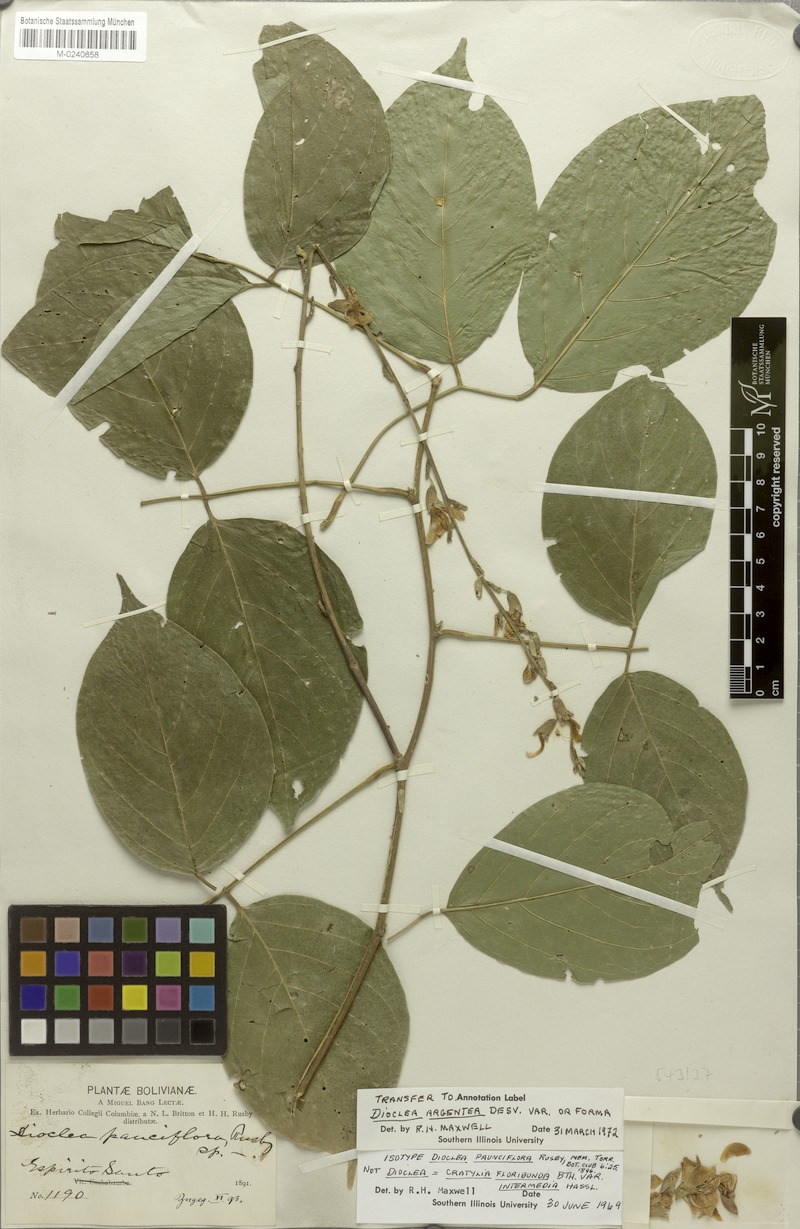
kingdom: Plantae
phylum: Tracheophyta
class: Magnoliopsida
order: Fabales
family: Fabaceae
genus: Cratylia
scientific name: Cratylia argentea
